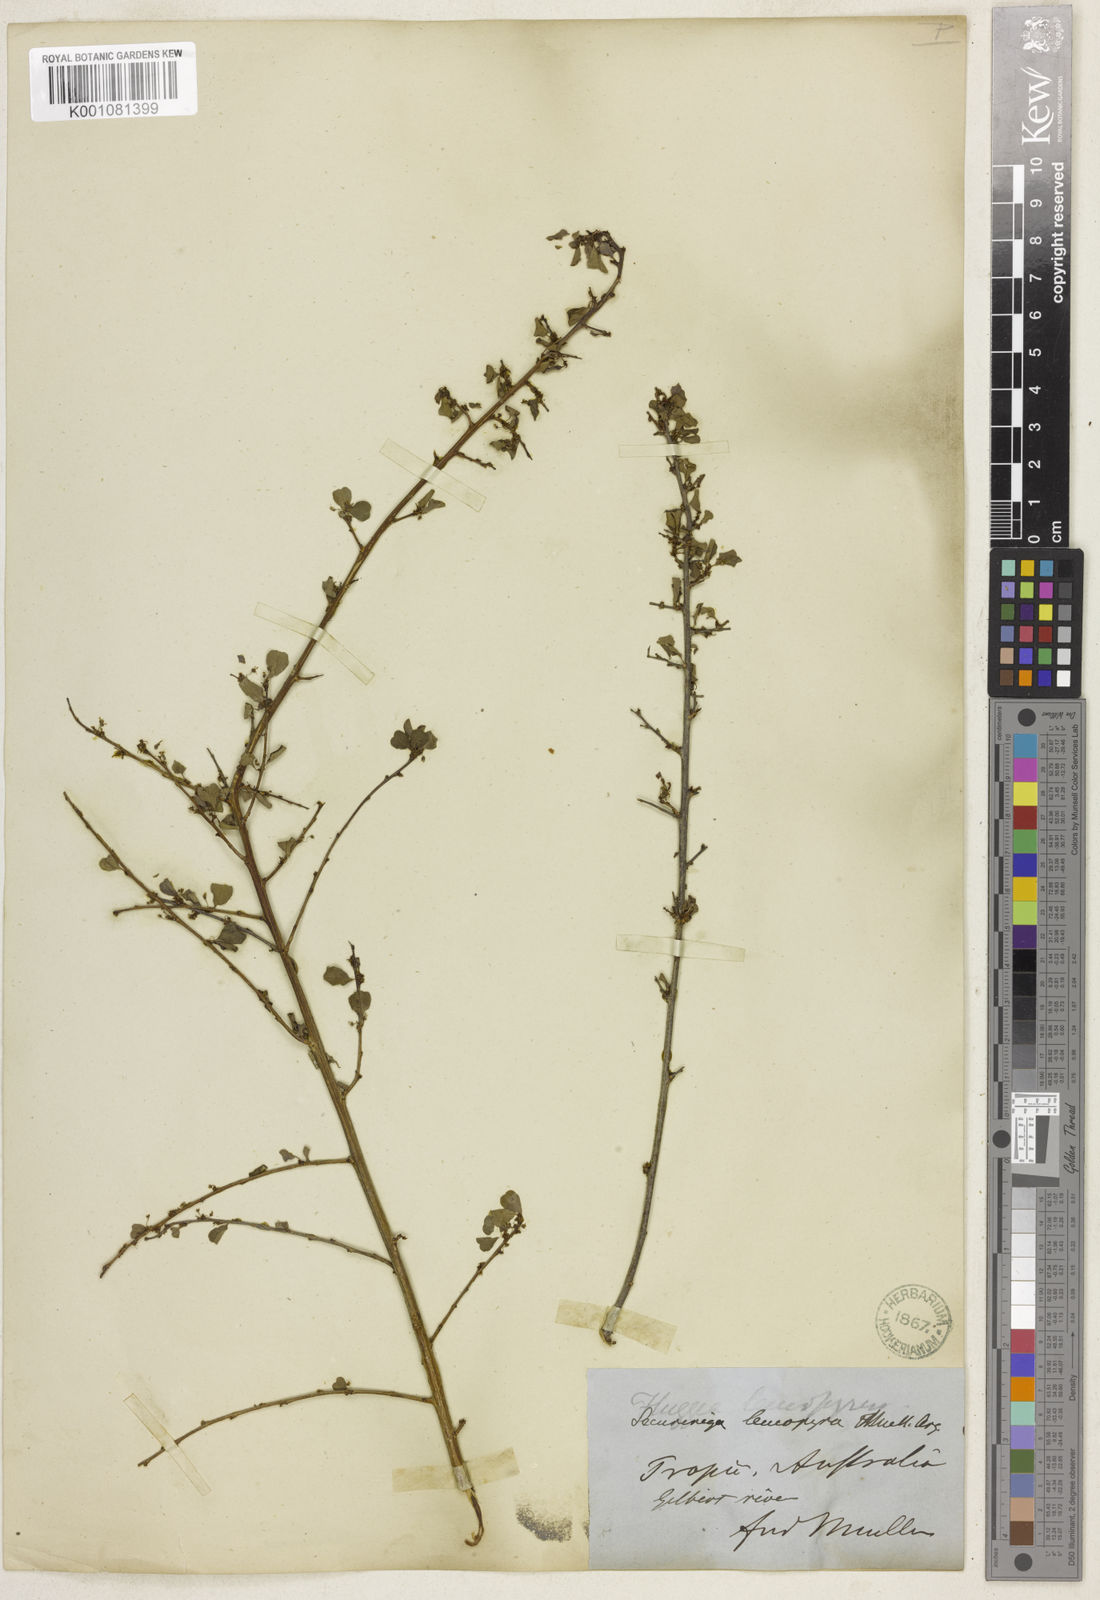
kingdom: Plantae
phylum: Tracheophyta
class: Magnoliopsida
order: Malpighiales
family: Phyllanthaceae
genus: Flueggea
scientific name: Flueggea leucopyrus
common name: Bushweed
